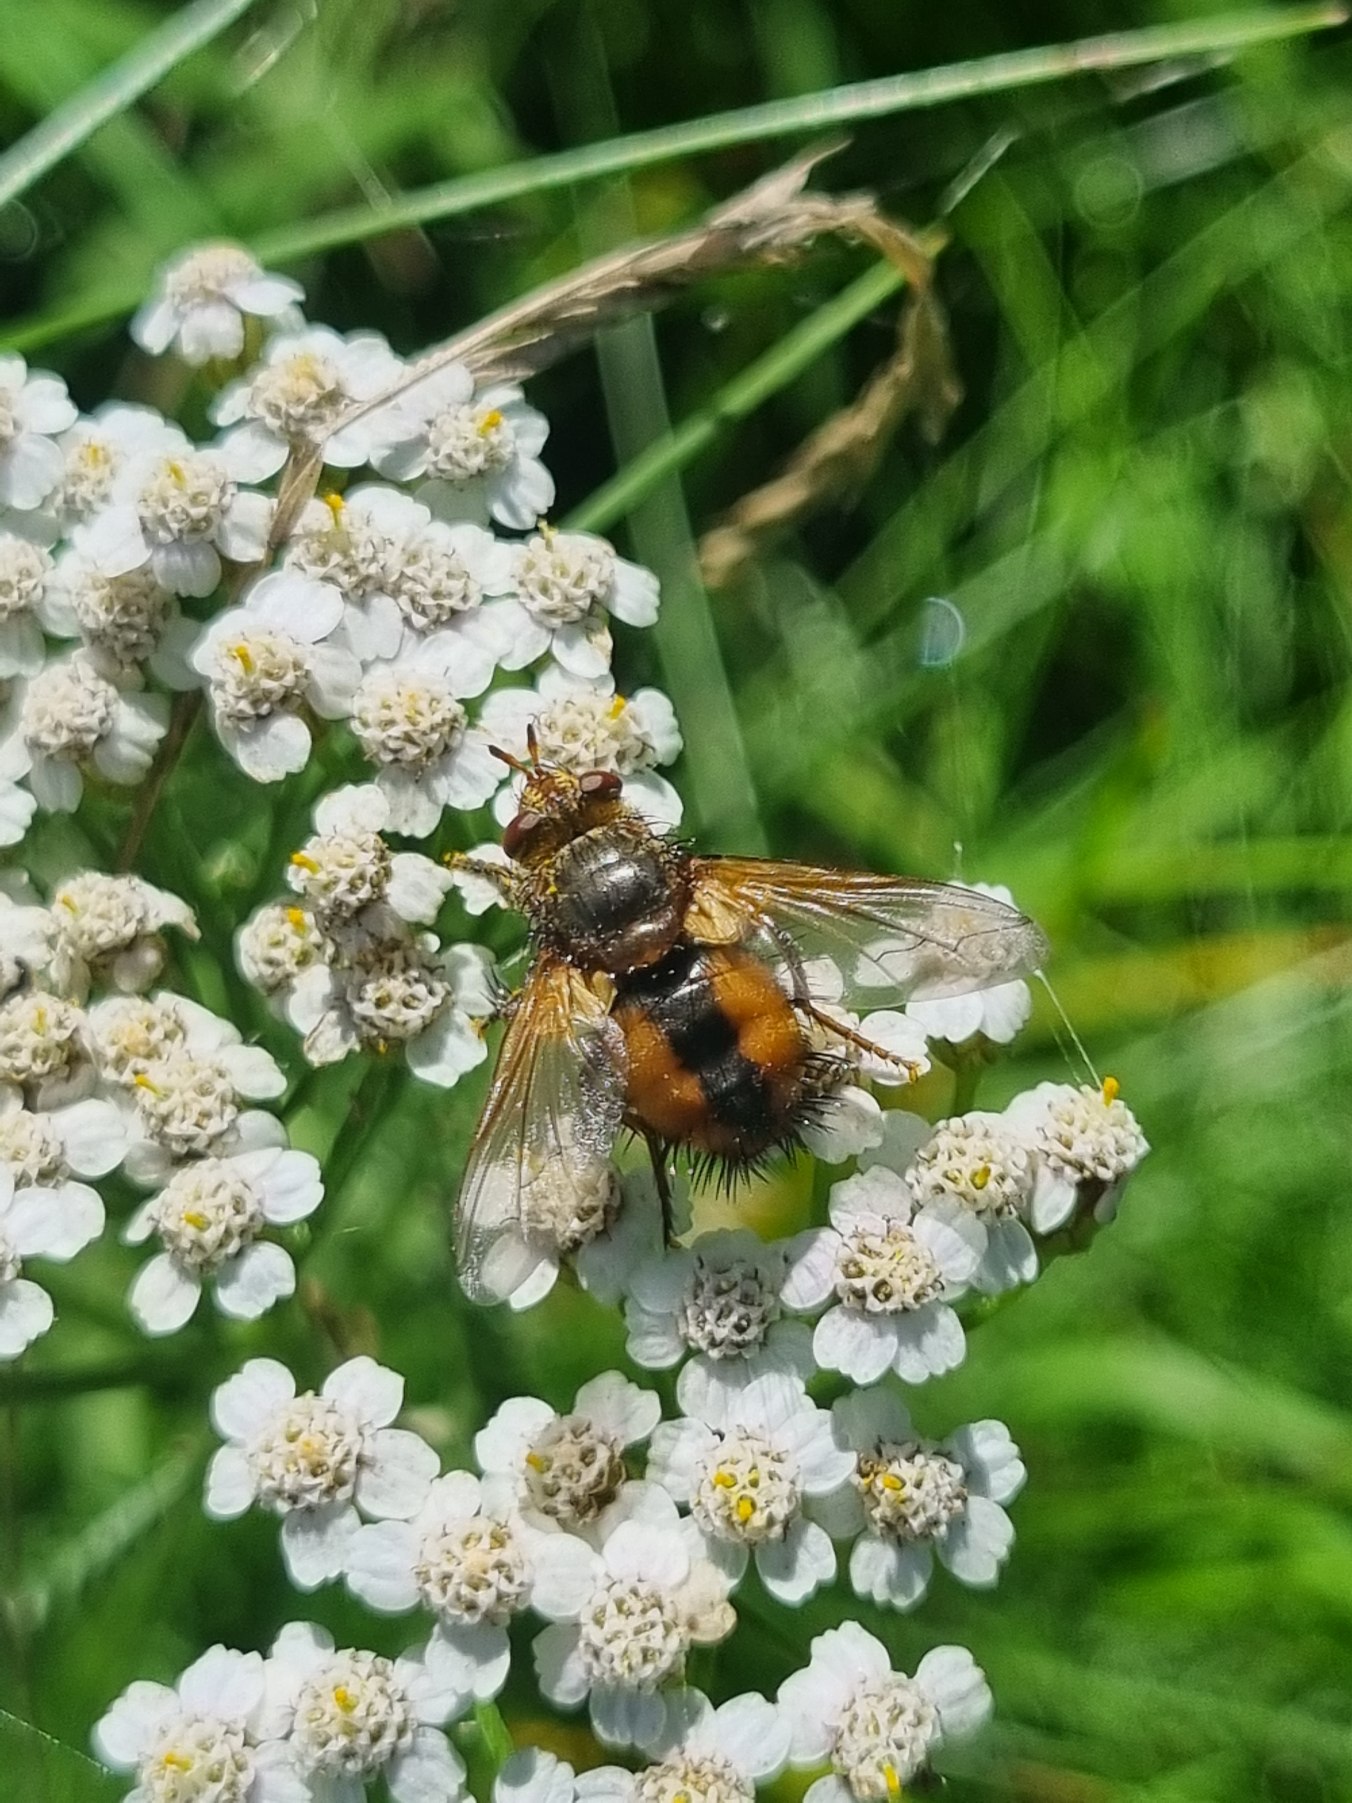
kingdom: Animalia
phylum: Arthropoda
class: Insecta
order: Diptera
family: Tachinidae
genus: Tachina
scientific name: Tachina fera
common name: Mellemfluen oskar
